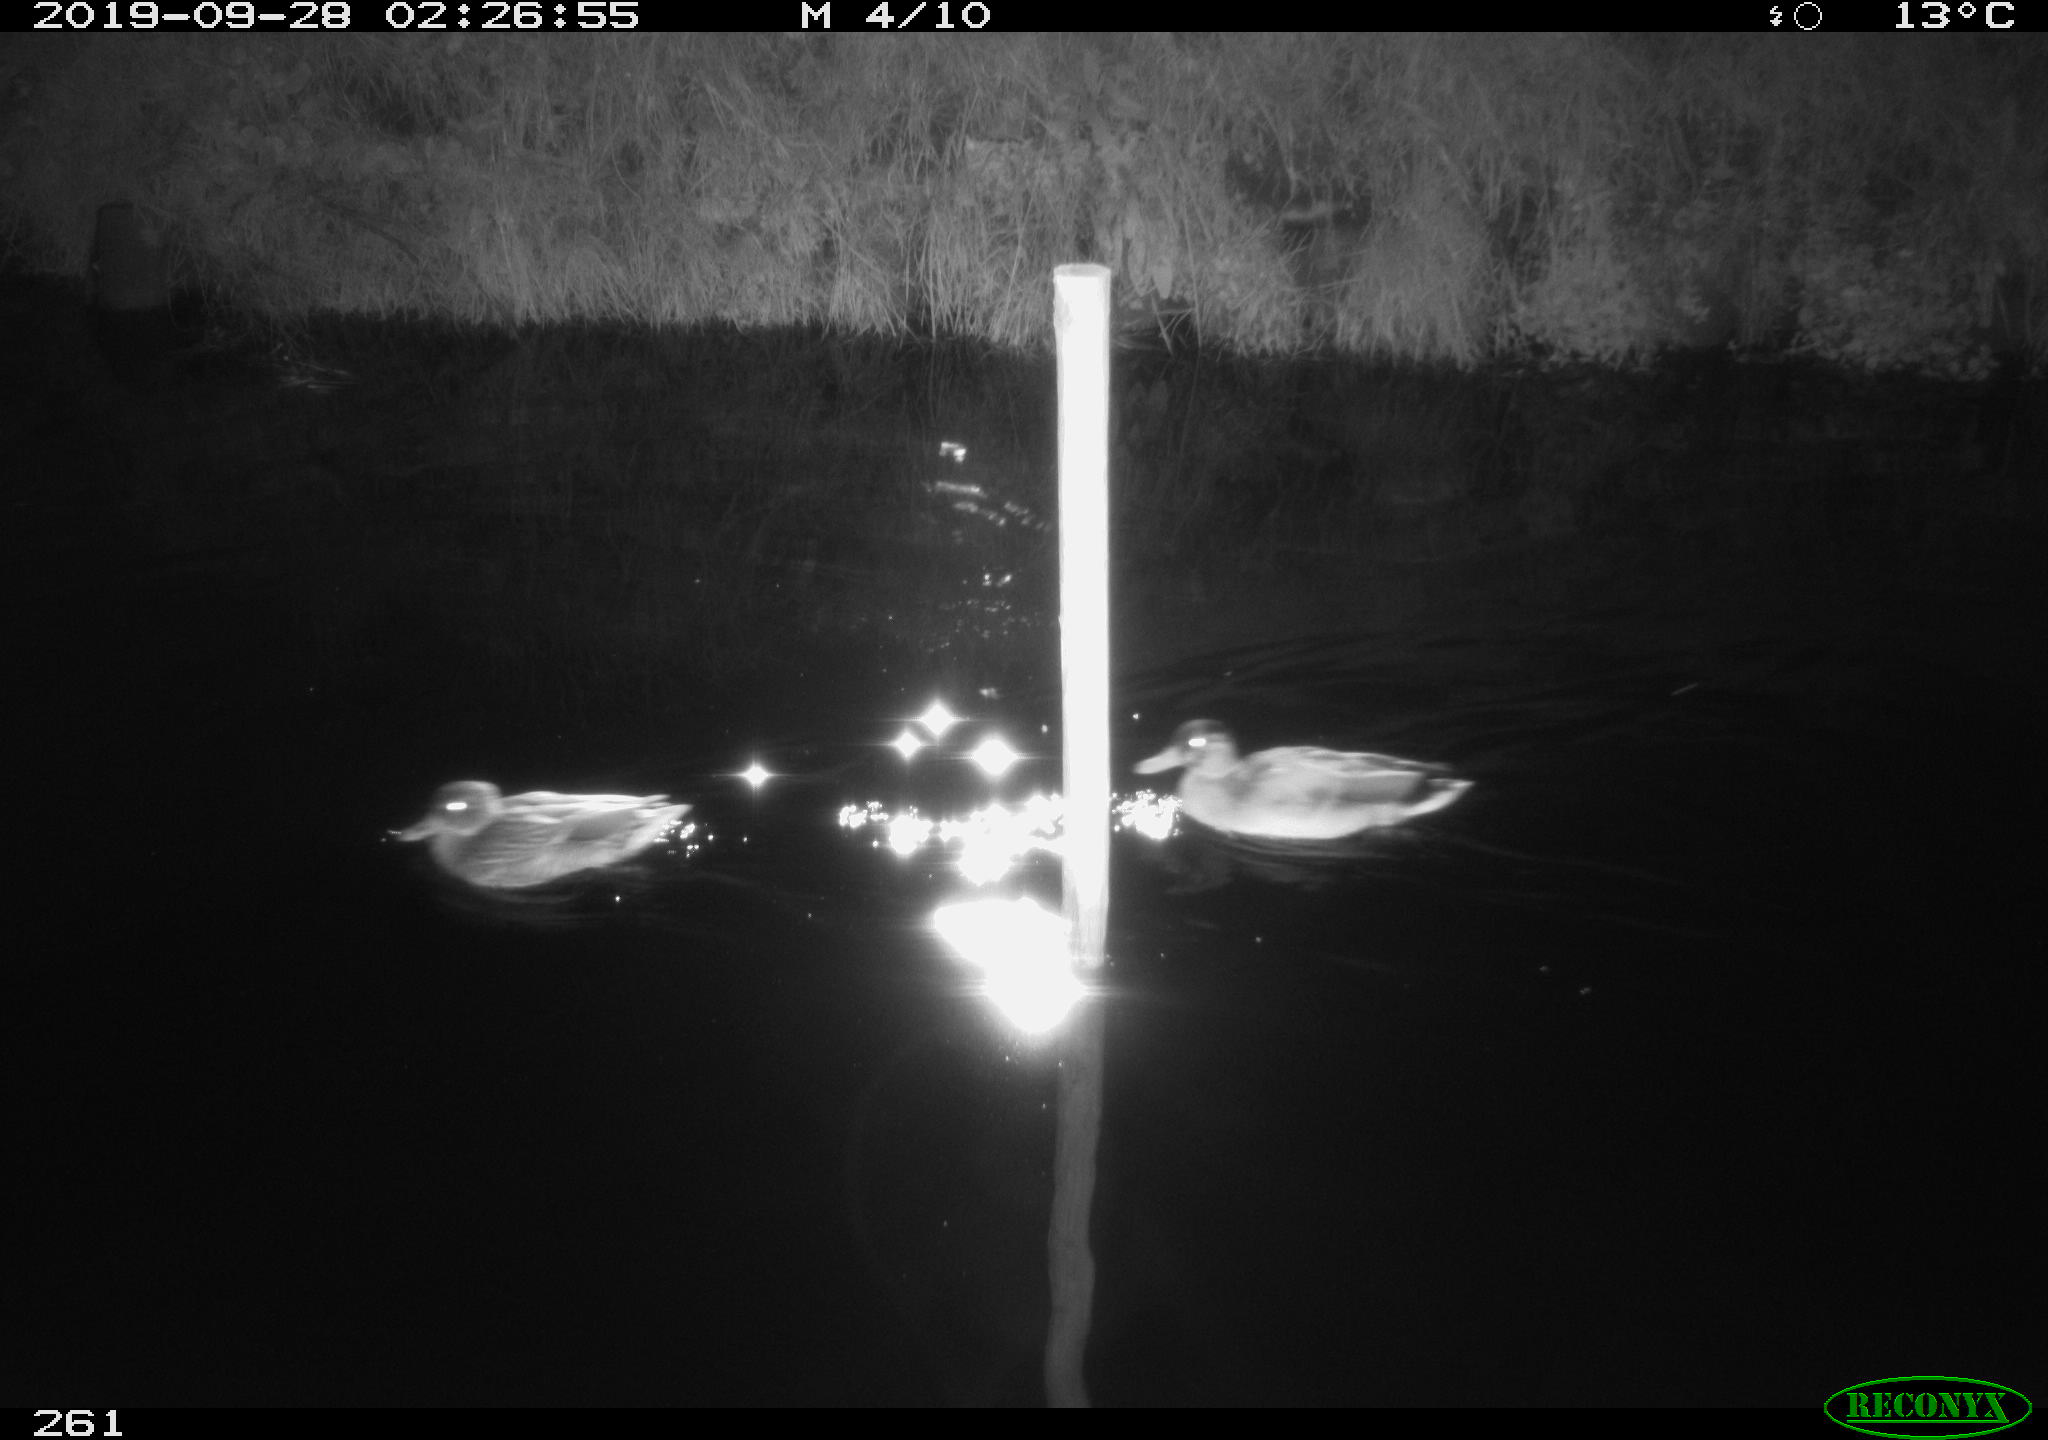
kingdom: Animalia
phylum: Chordata
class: Aves
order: Anseriformes
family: Anatidae
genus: Anas
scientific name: Anas platyrhynchos
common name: Mallard
